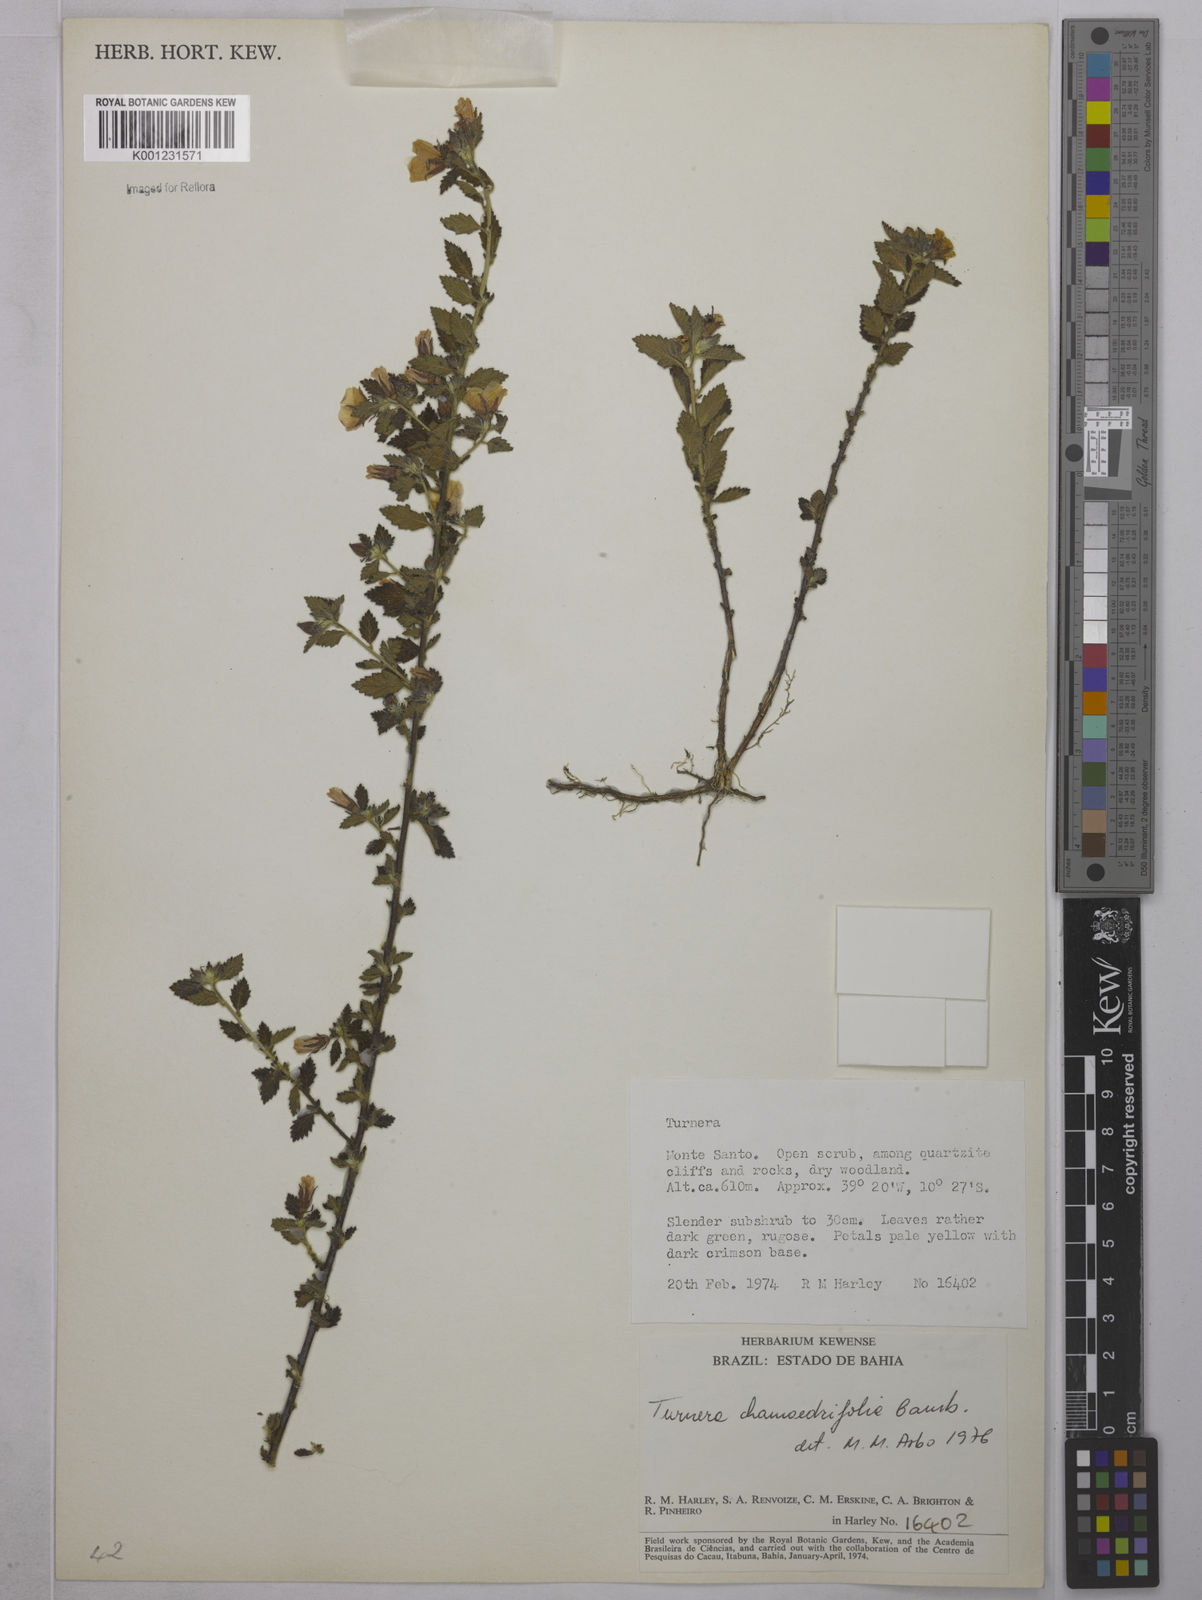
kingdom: Plantae
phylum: Tracheophyta
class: Magnoliopsida
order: Malpighiales
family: Turneraceae
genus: Turnera
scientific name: Turnera chamaedrifolia
